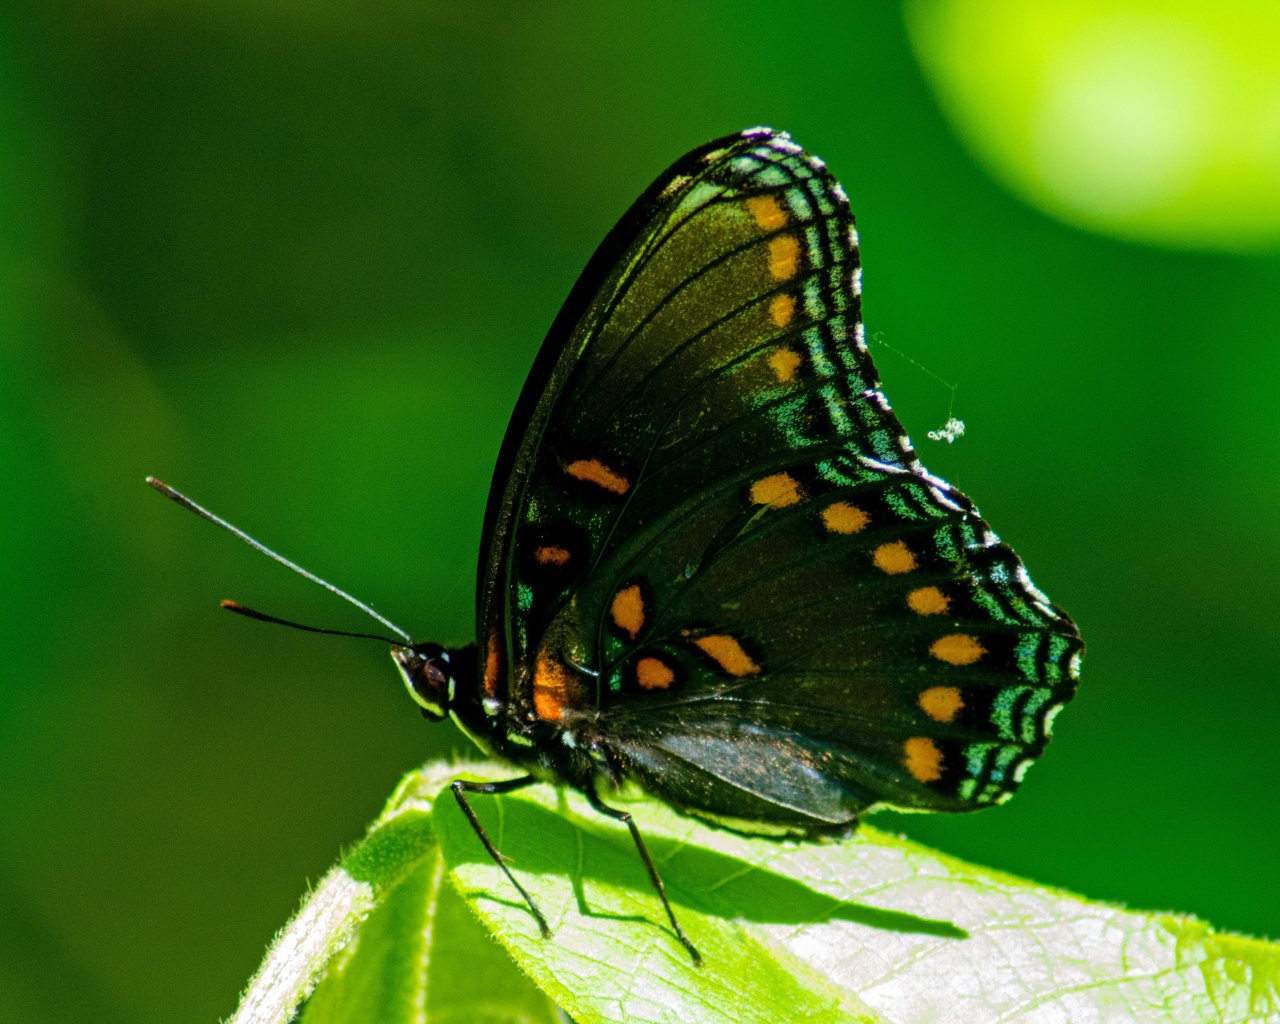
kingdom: Animalia
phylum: Arthropoda
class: Insecta
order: Lepidoptera
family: Nymphalidae
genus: Limenitis
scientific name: Limenitis astyanax
